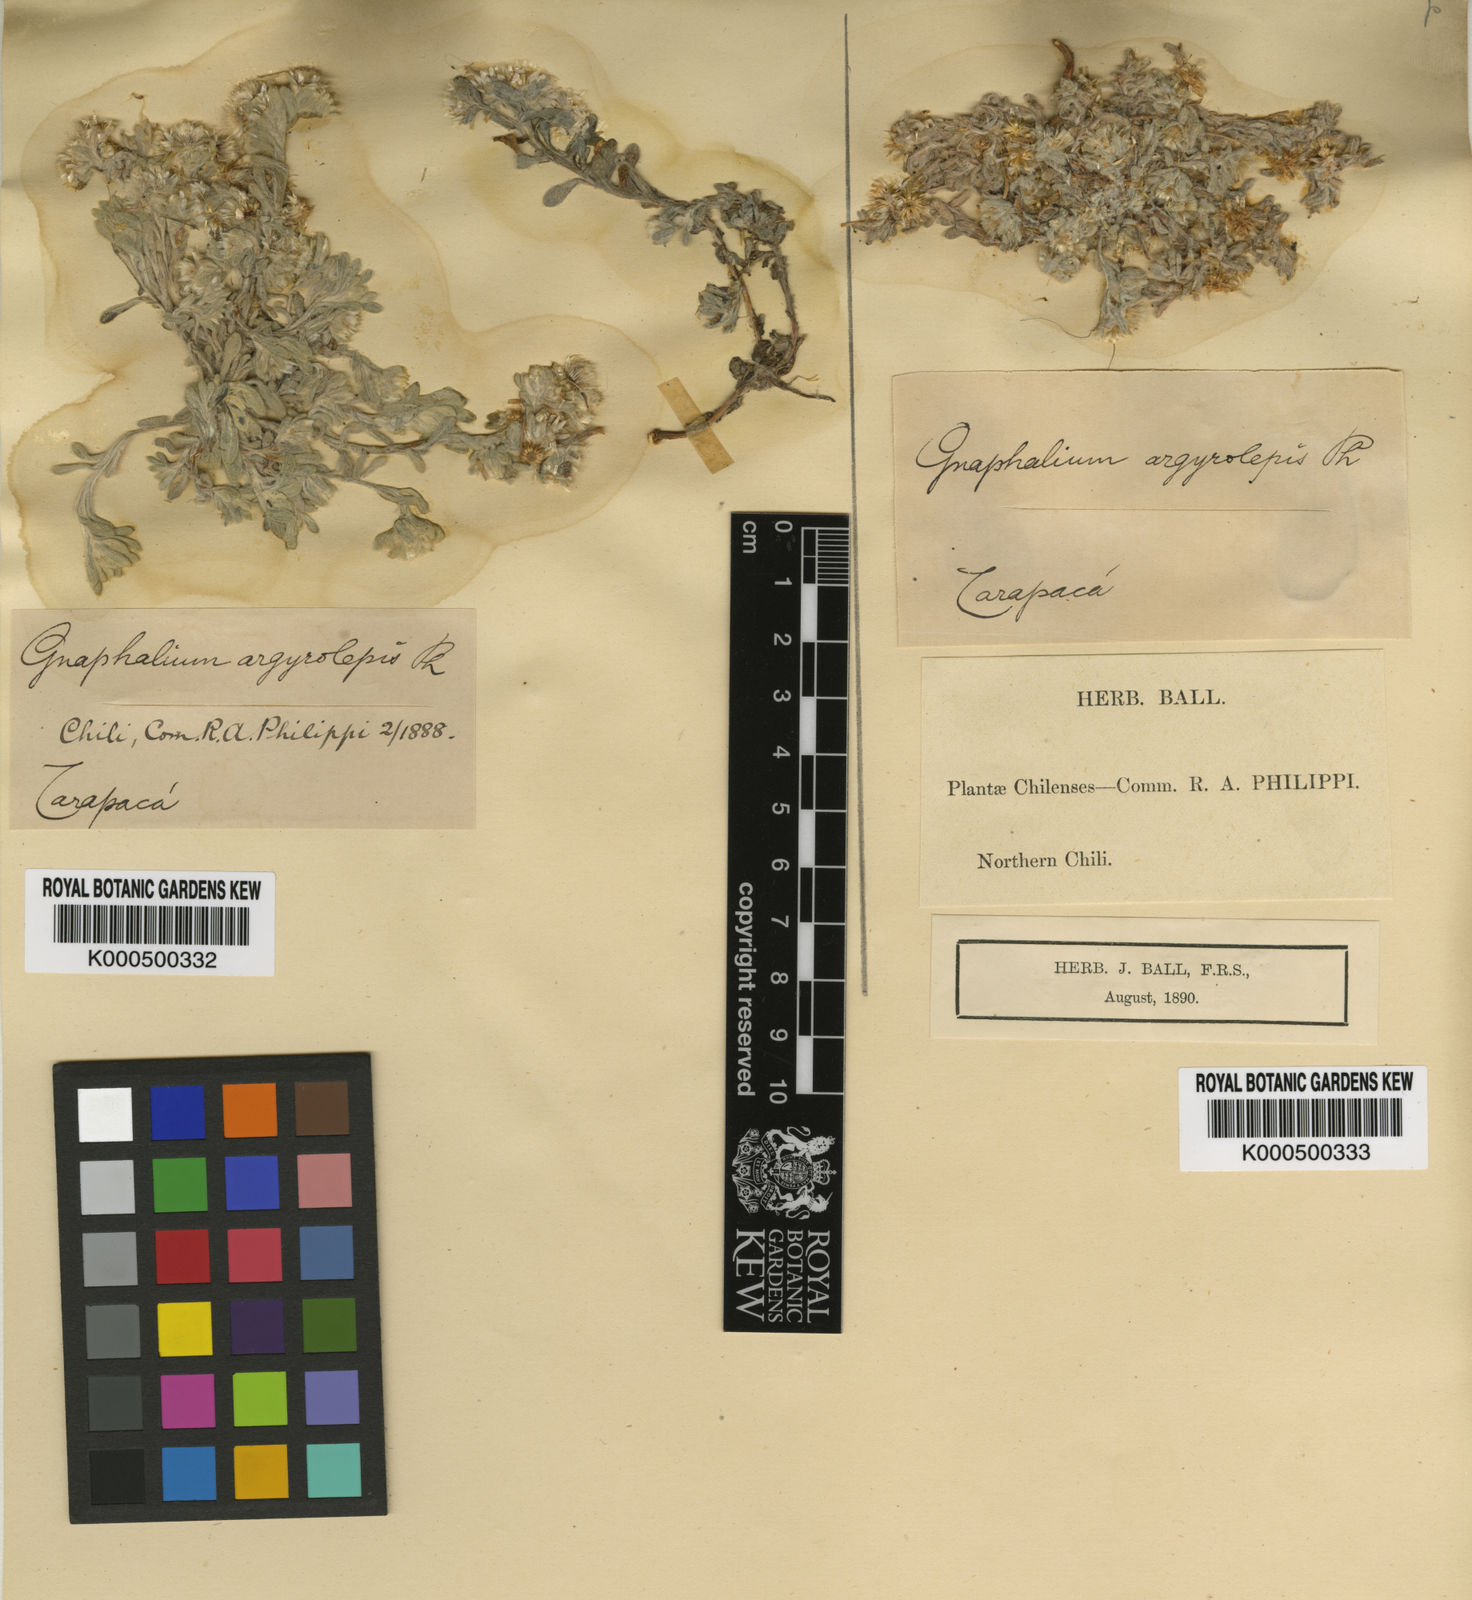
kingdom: Plantae
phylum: Tracheophyta
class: Magnoliopsida
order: Asterales
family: Asteraceae
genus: Pseudognaphalium
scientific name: Pseudognaphalium lacteum
